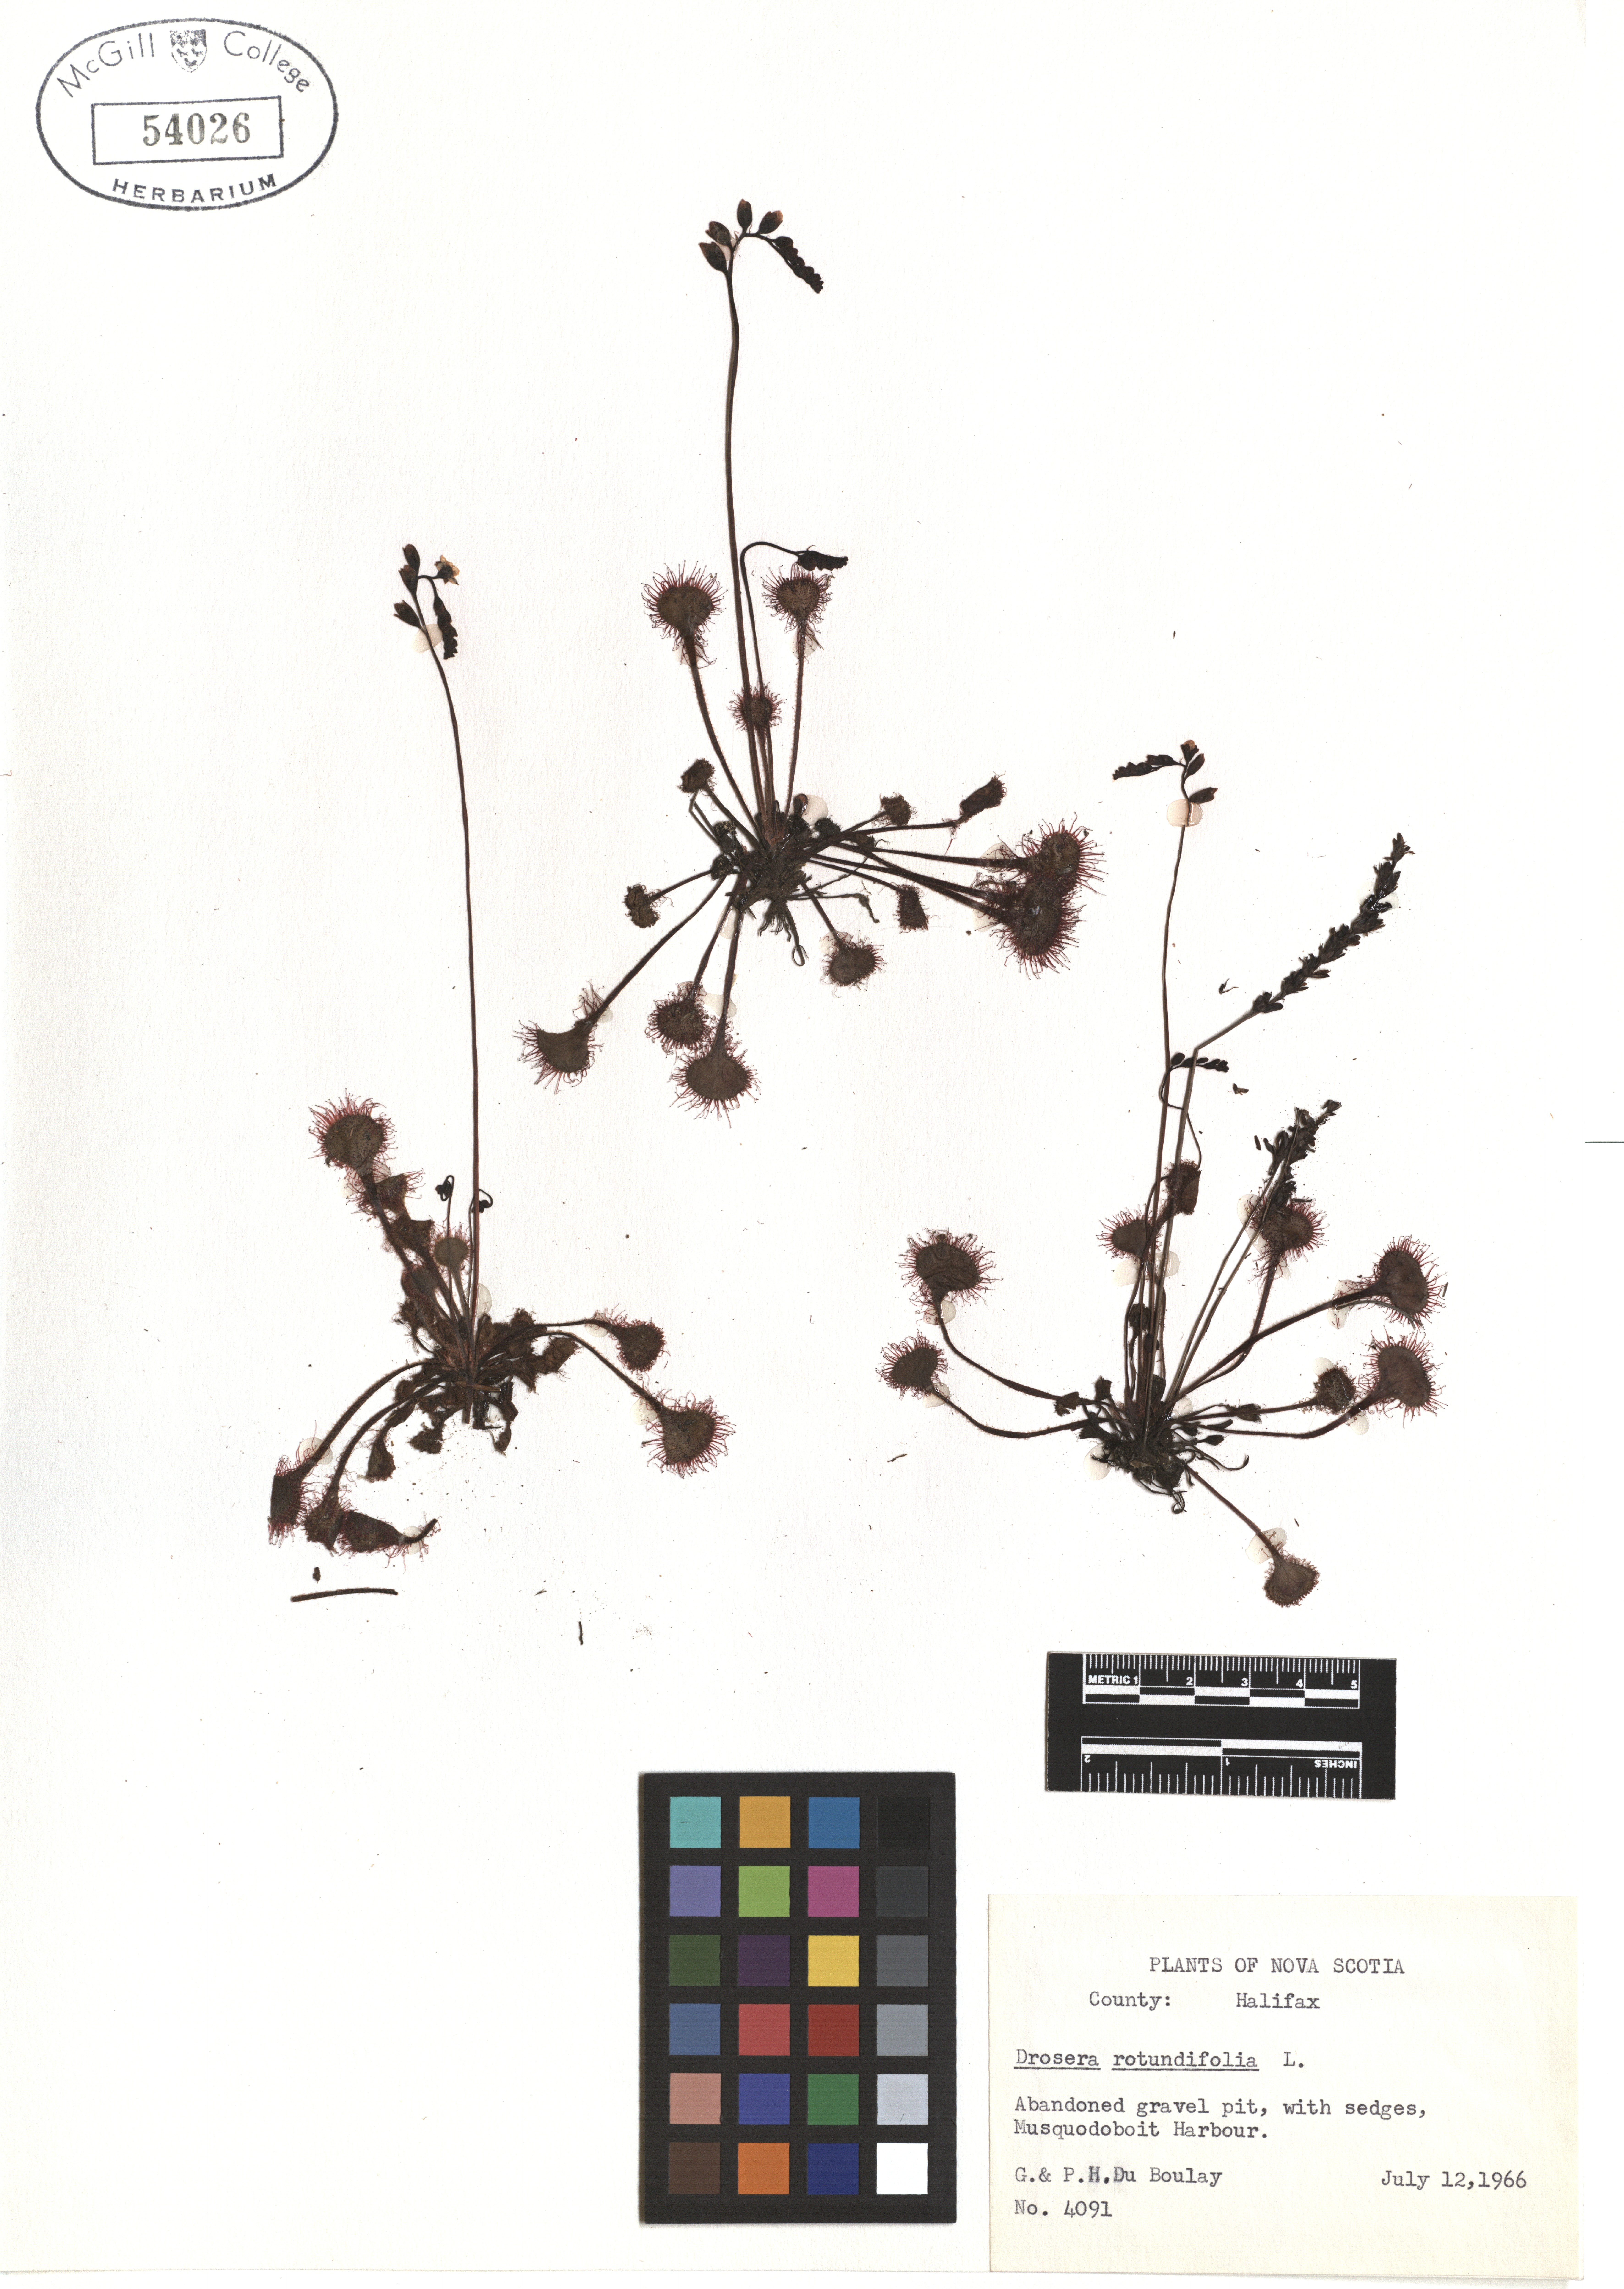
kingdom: Plantae
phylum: Tracheophyta
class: Magnoliopsida
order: Caryophyllales
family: Droseraceae
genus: Drosera
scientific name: Drosera rotundifolia
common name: Round-leaved sundew
